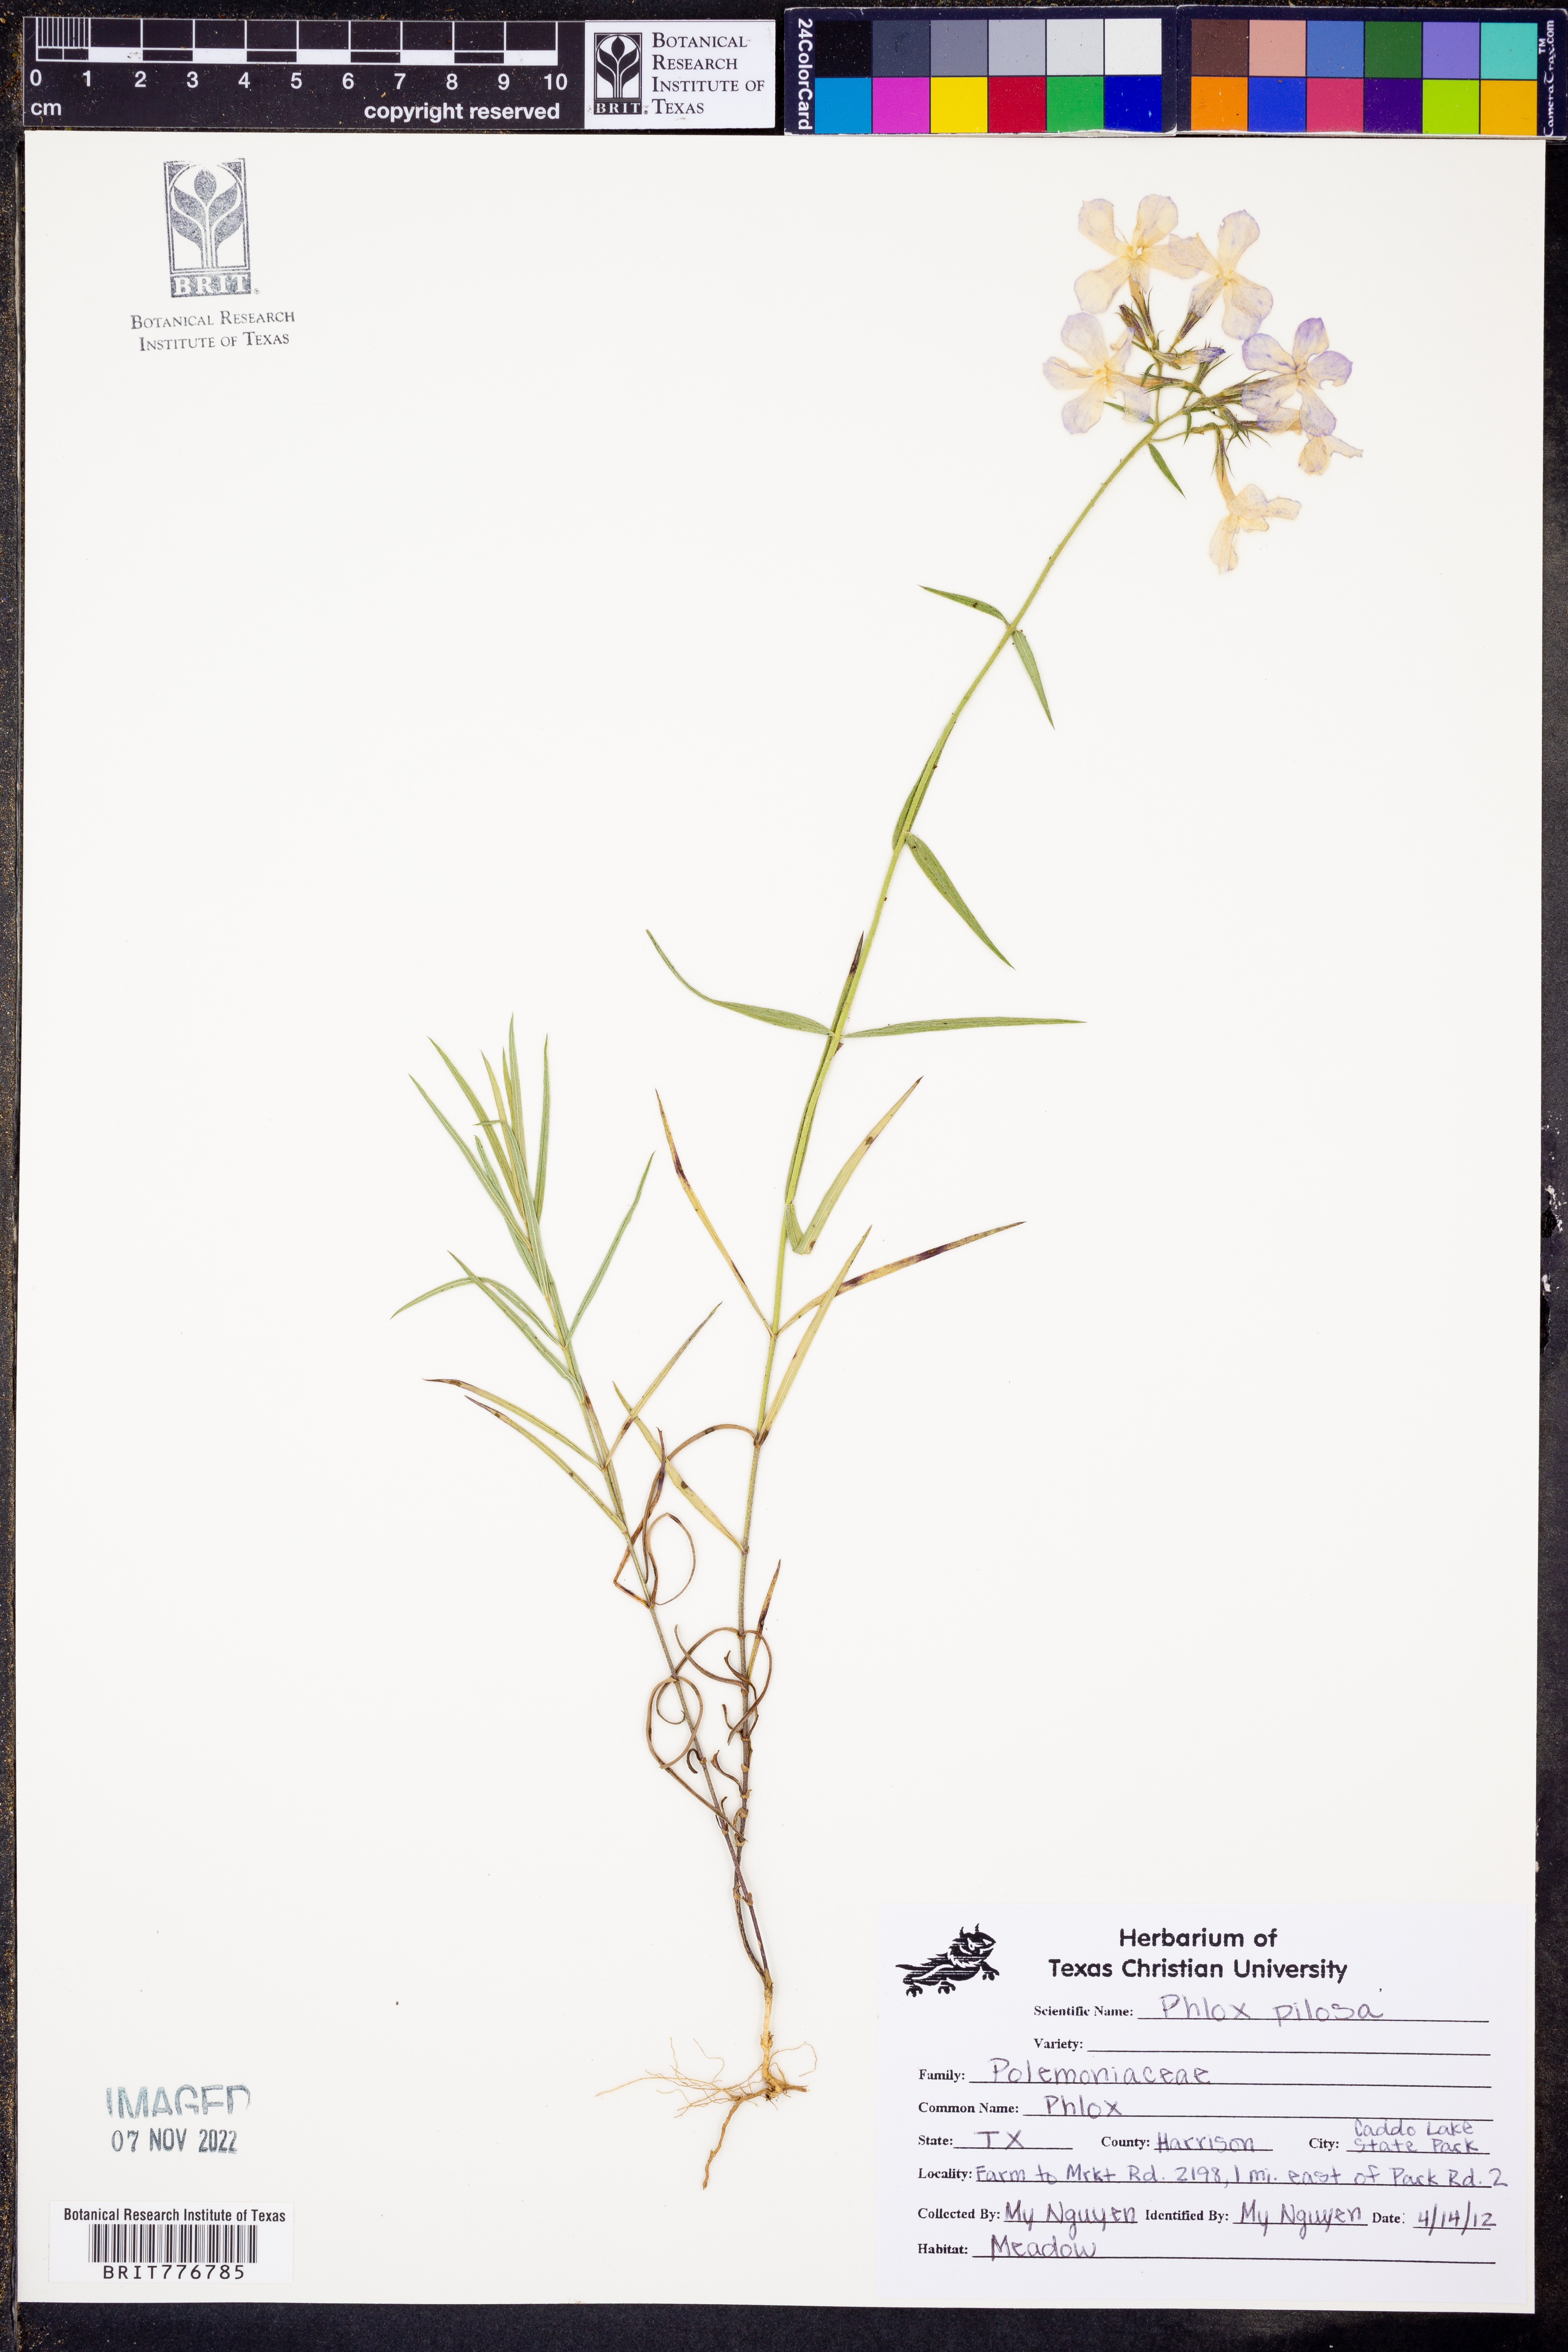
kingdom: Plantae
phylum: Tracheophyta
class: Magnoliopsida
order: Ericales
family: Polemoniaceae
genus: Phlox
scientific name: Phlox pilosa
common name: Prairie phlox
